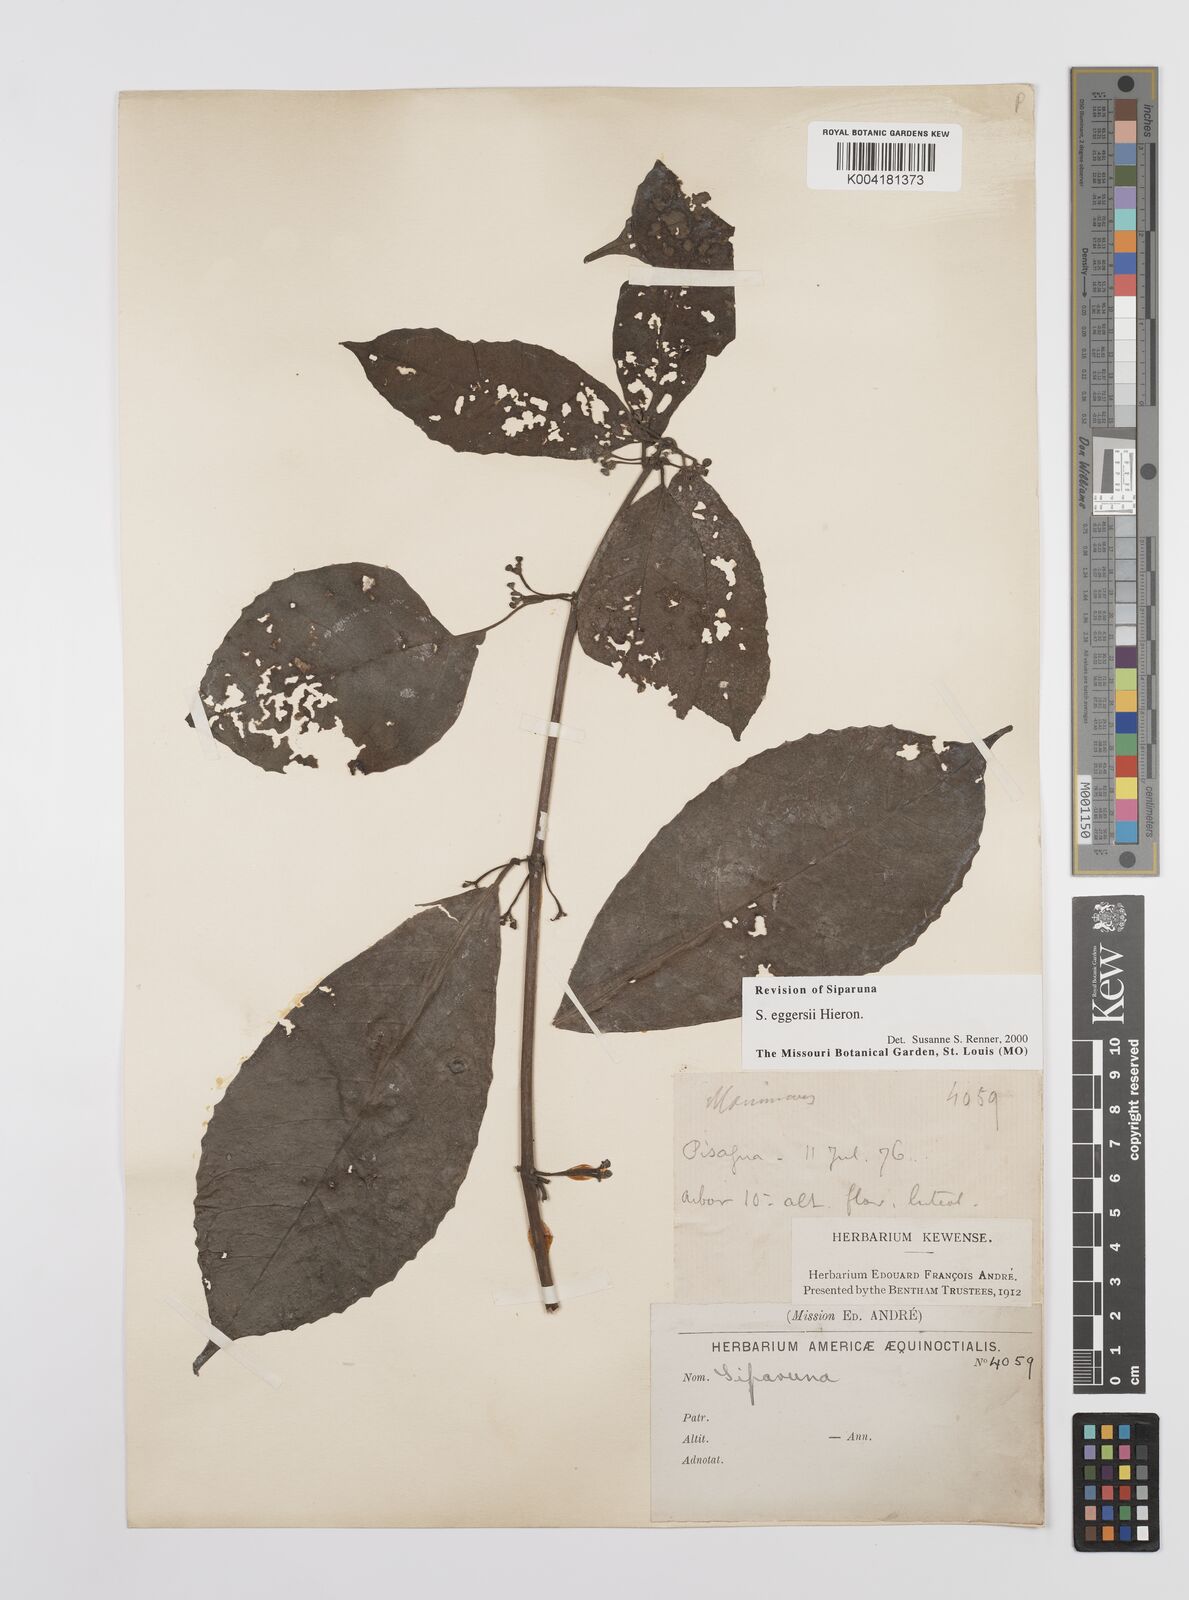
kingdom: Plantae
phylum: Tracheophyta
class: Magnoliopsida
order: Laurales
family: Siparunaceae
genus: Siparuna
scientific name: Siparuna eggersii
